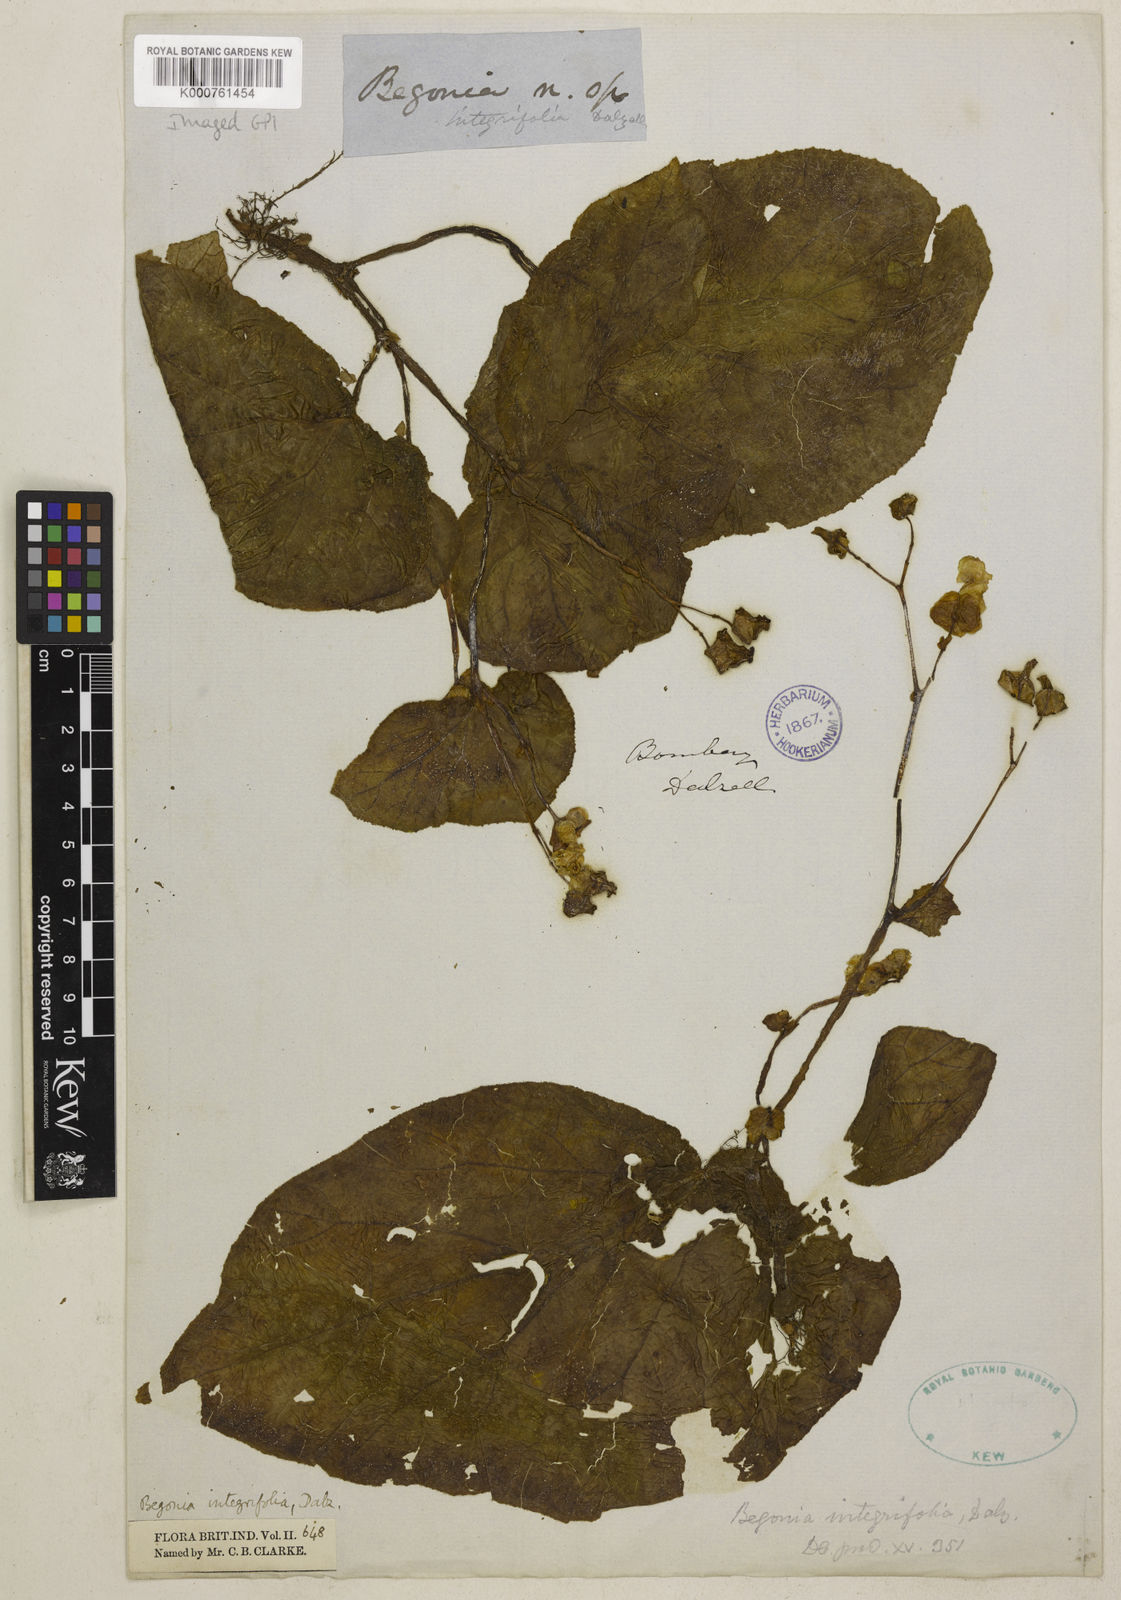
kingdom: Plantae
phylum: Tracheophyta
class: Magnoliopsida
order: Cucurbitales
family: Begoniaceae
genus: Begonia
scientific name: Begonia integrifolia
